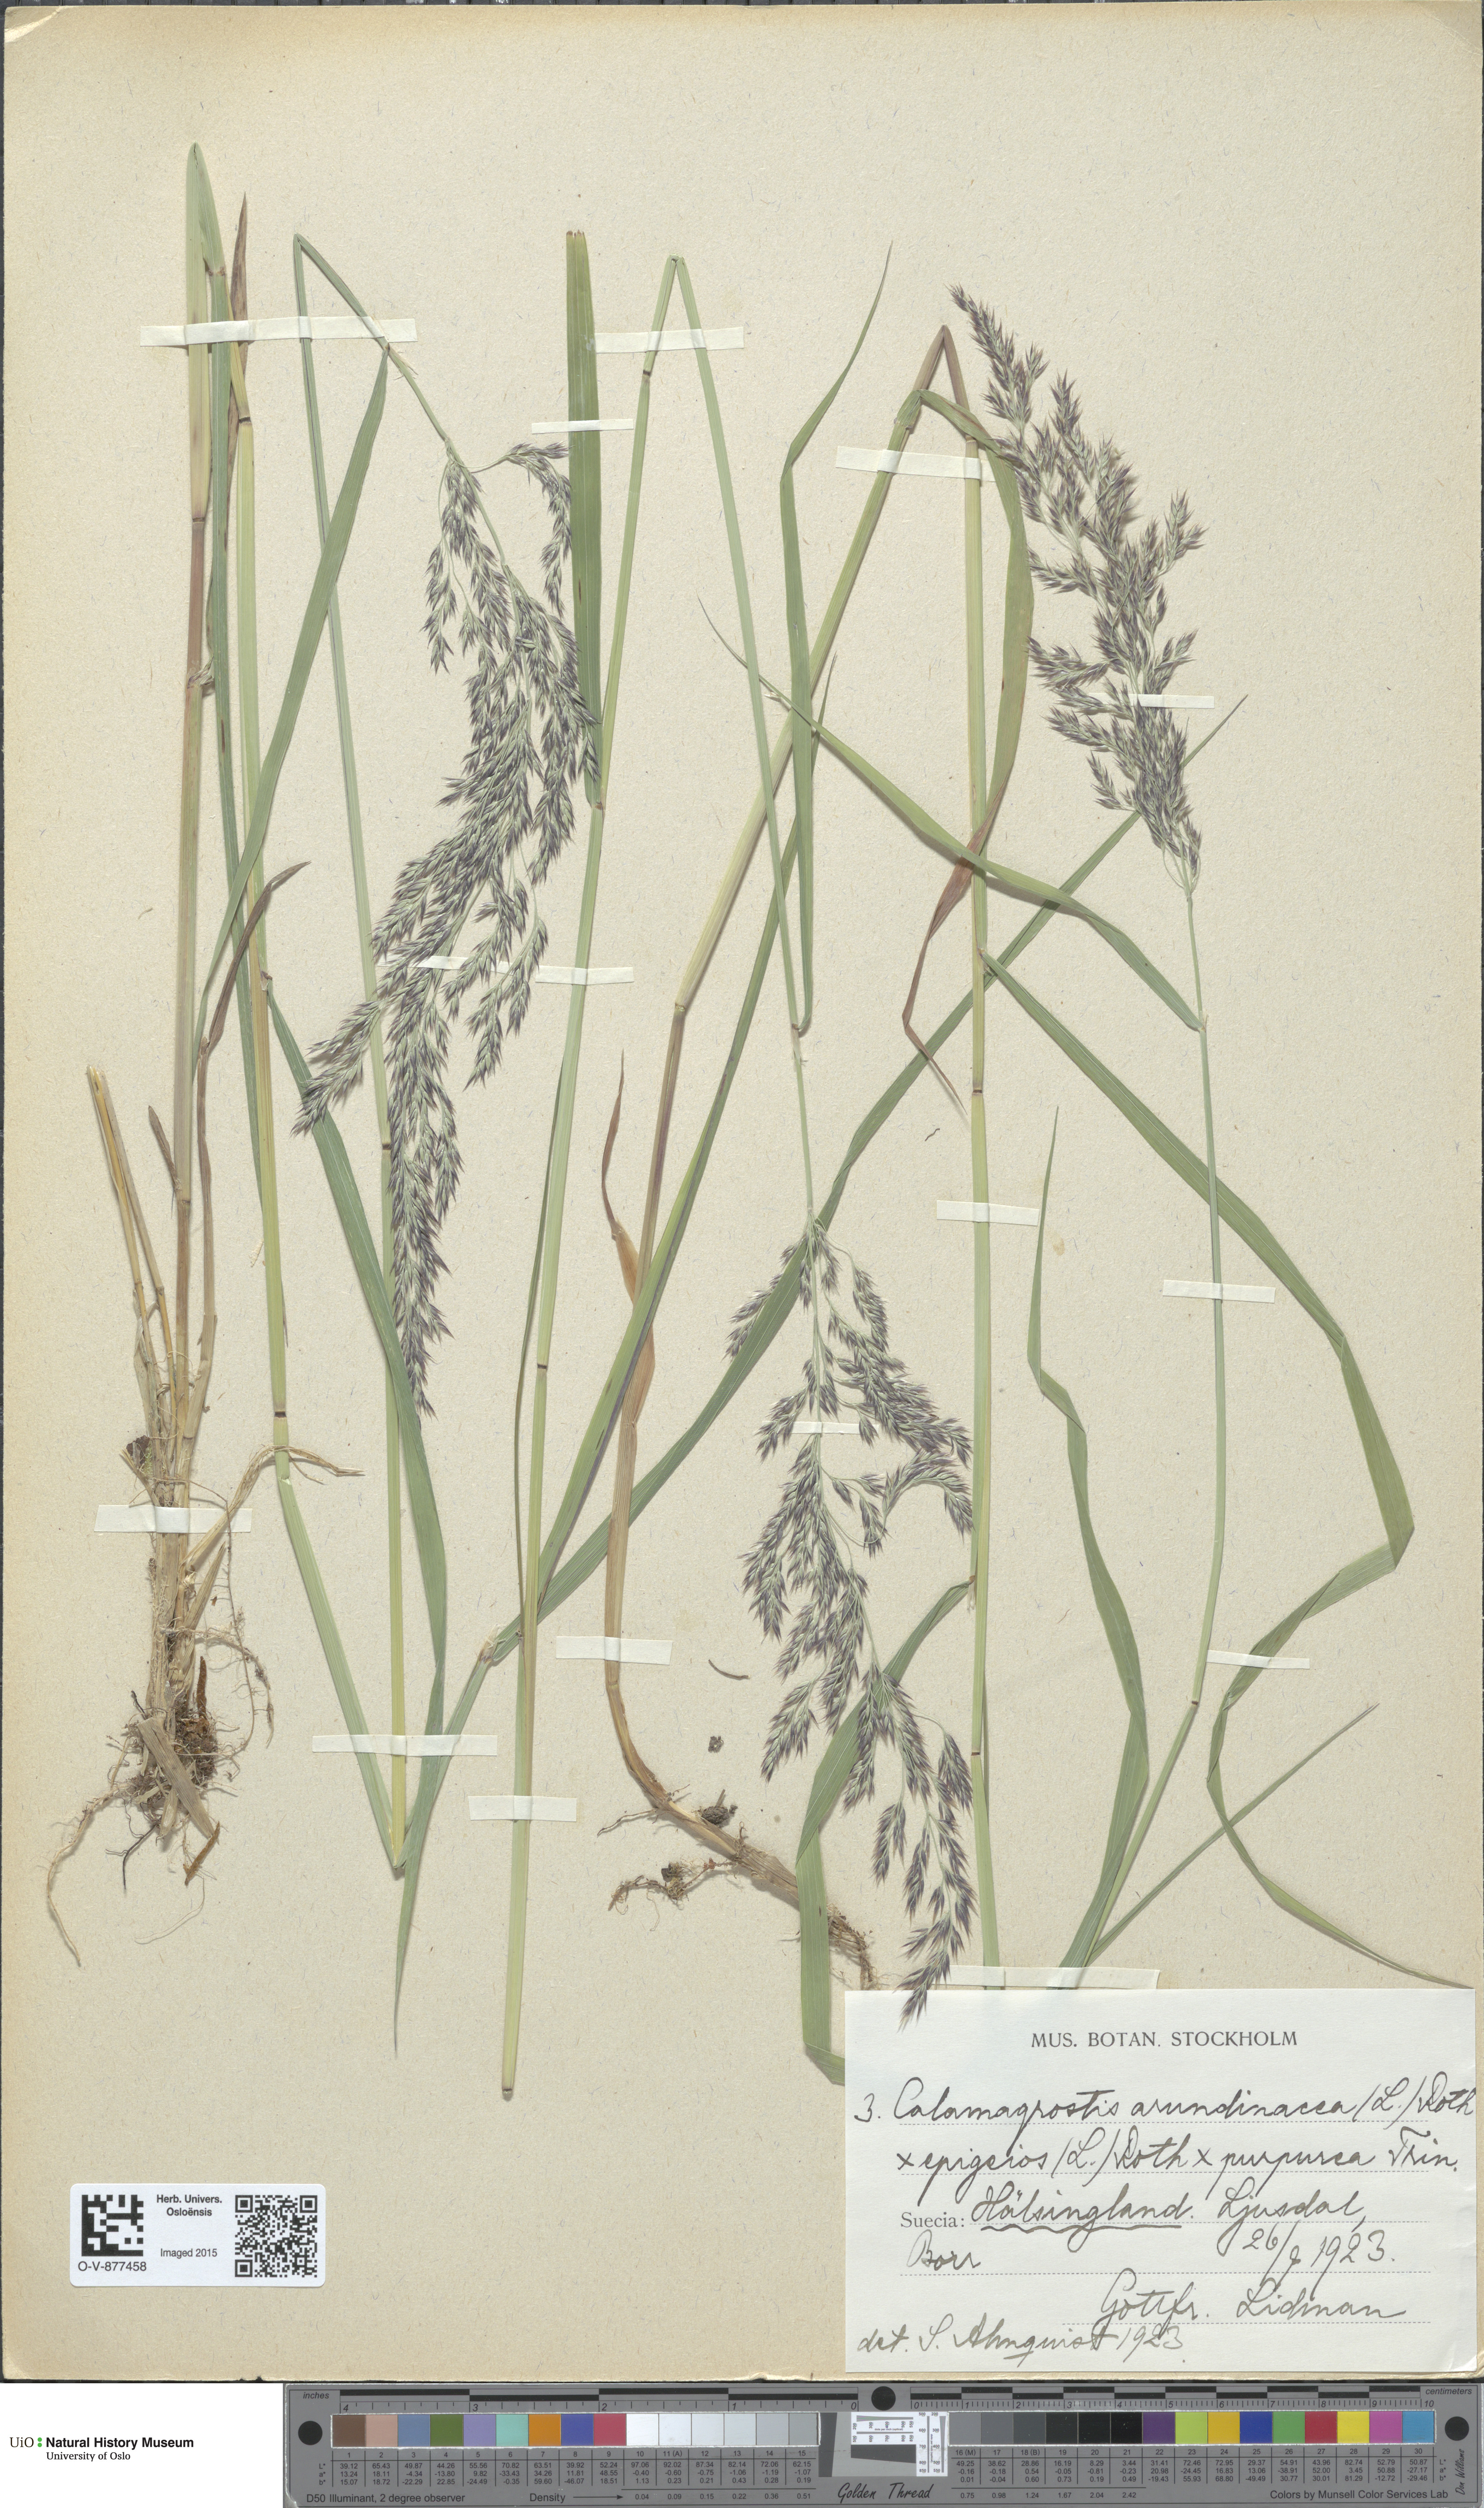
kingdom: Plantae
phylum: Tracheophyta
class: Liliopsida
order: Poales
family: Poaceae
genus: Calamagrostis
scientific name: Calamagrostis
